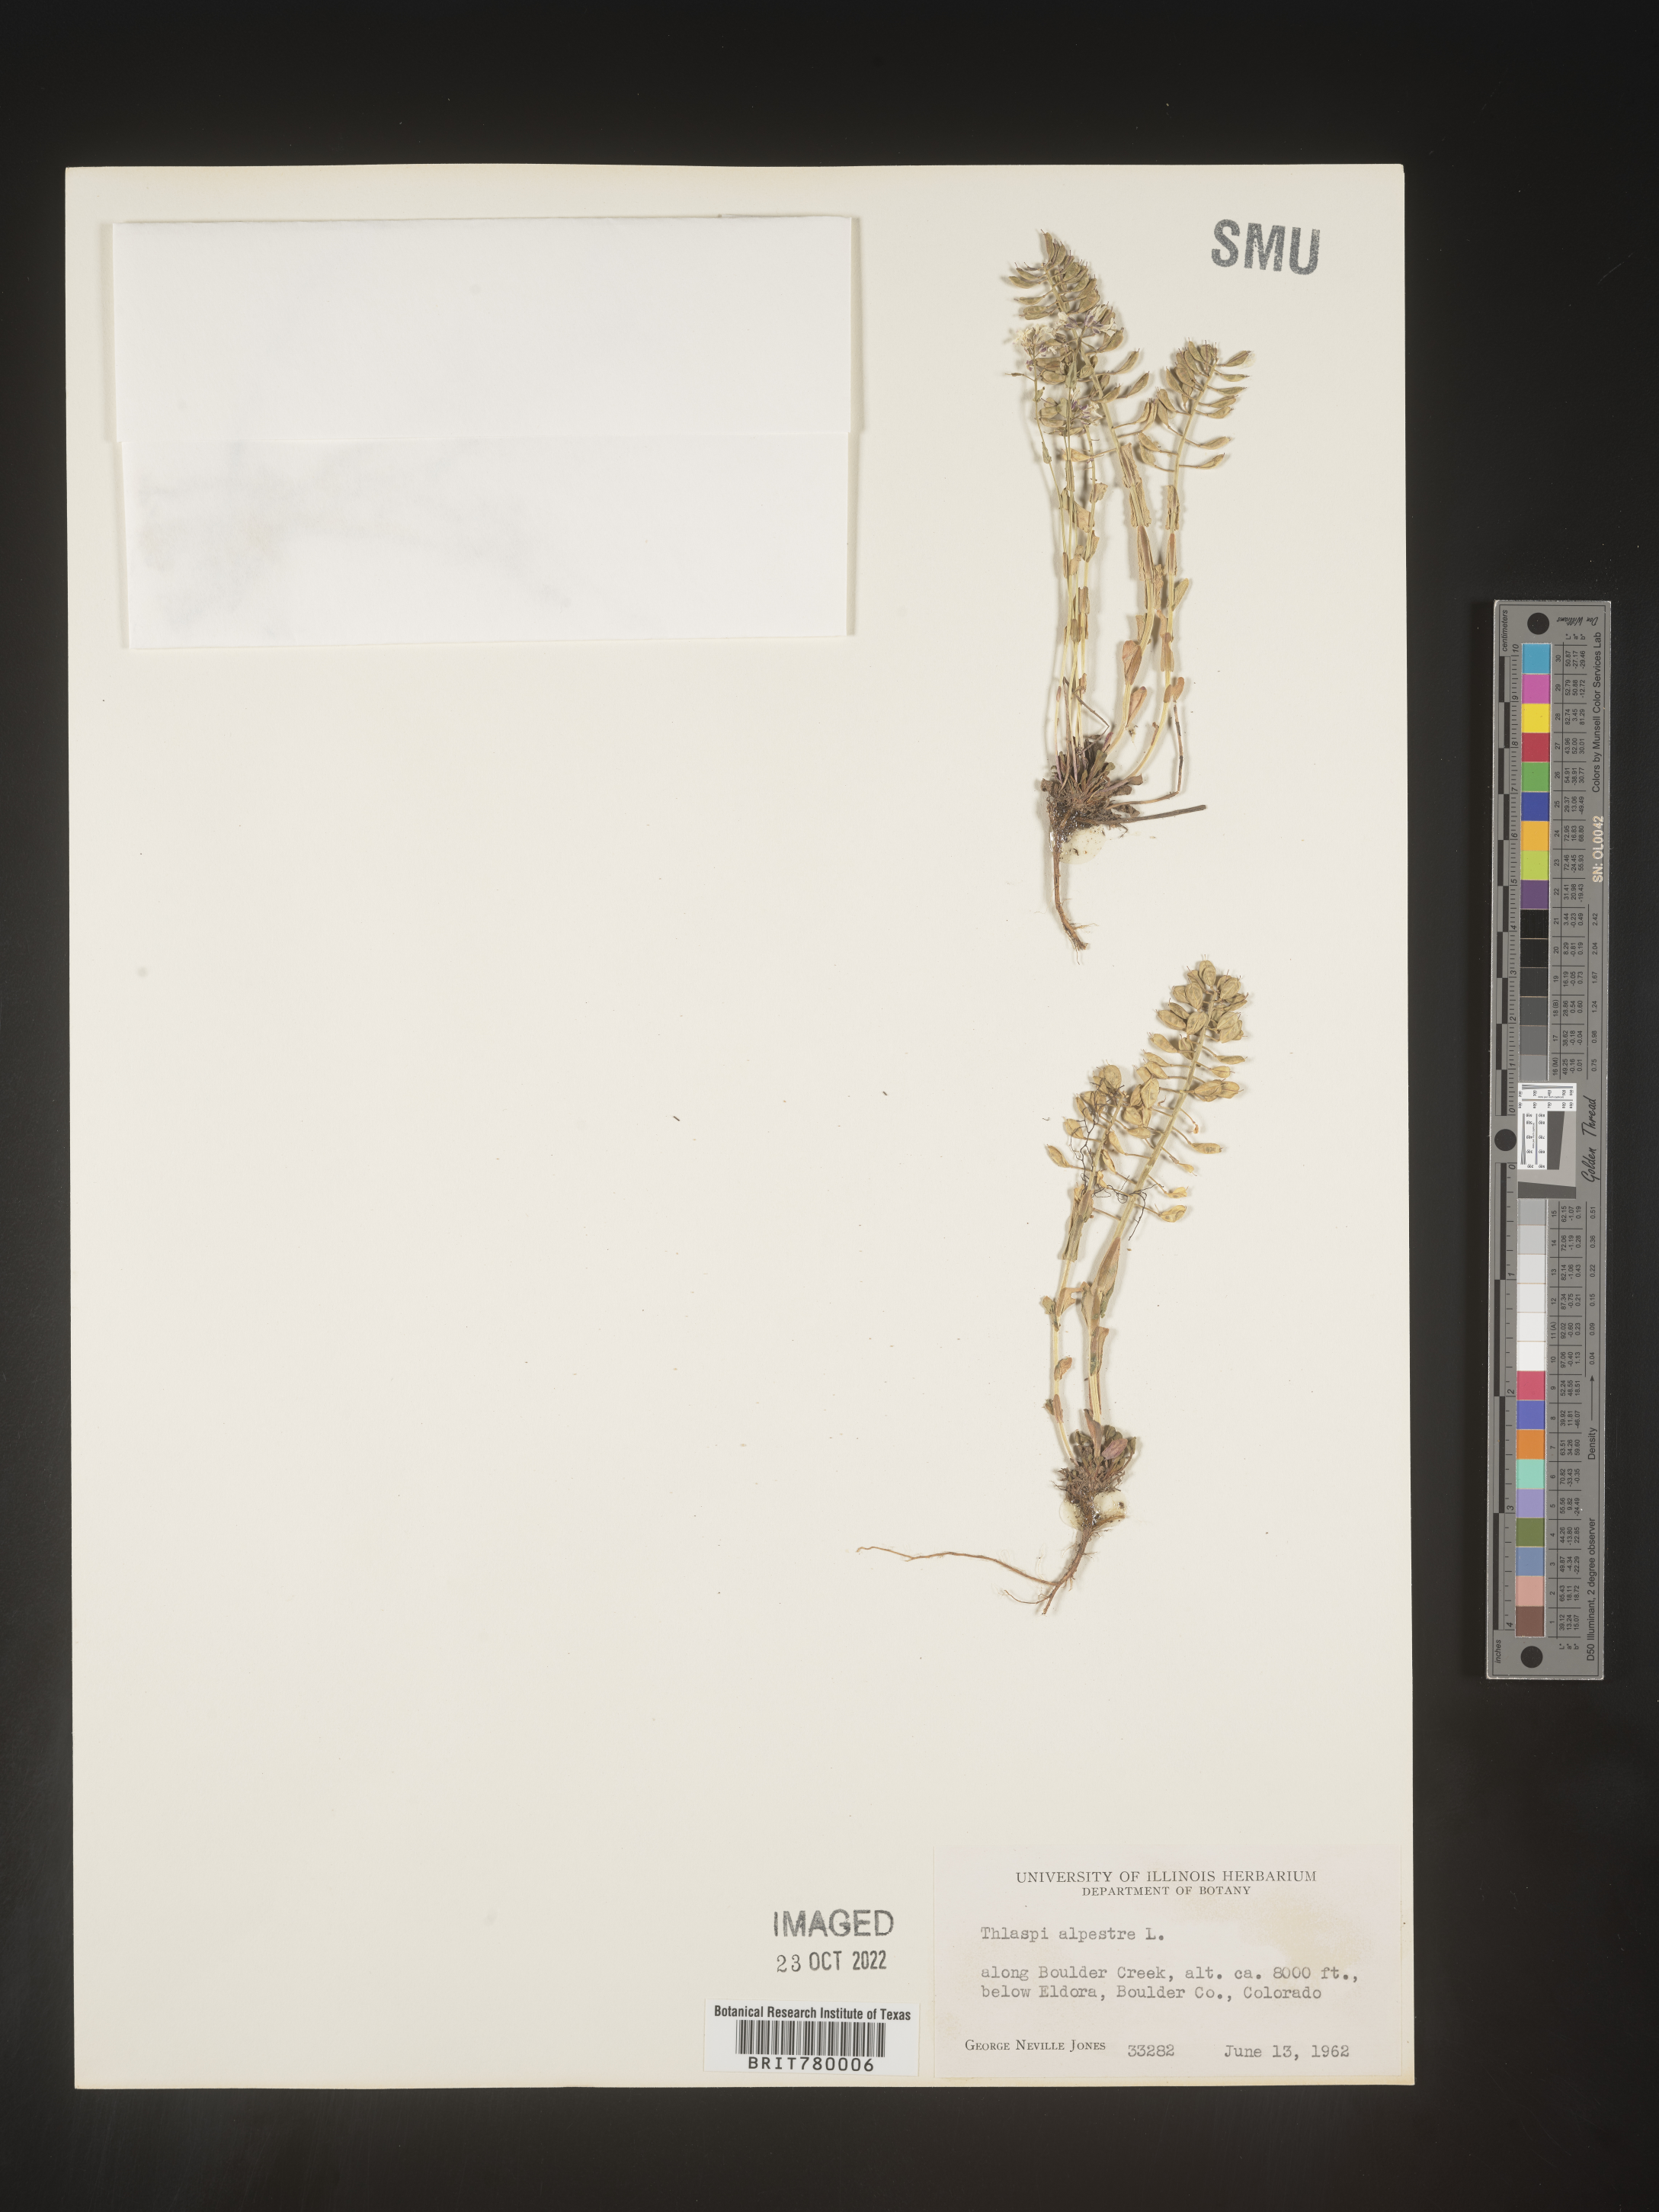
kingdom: Plantae
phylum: Tracheophyta
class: Magnoliopsida
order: Brassicales
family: Brassicaceae
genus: Noccaea
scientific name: Noccaea alpestris
